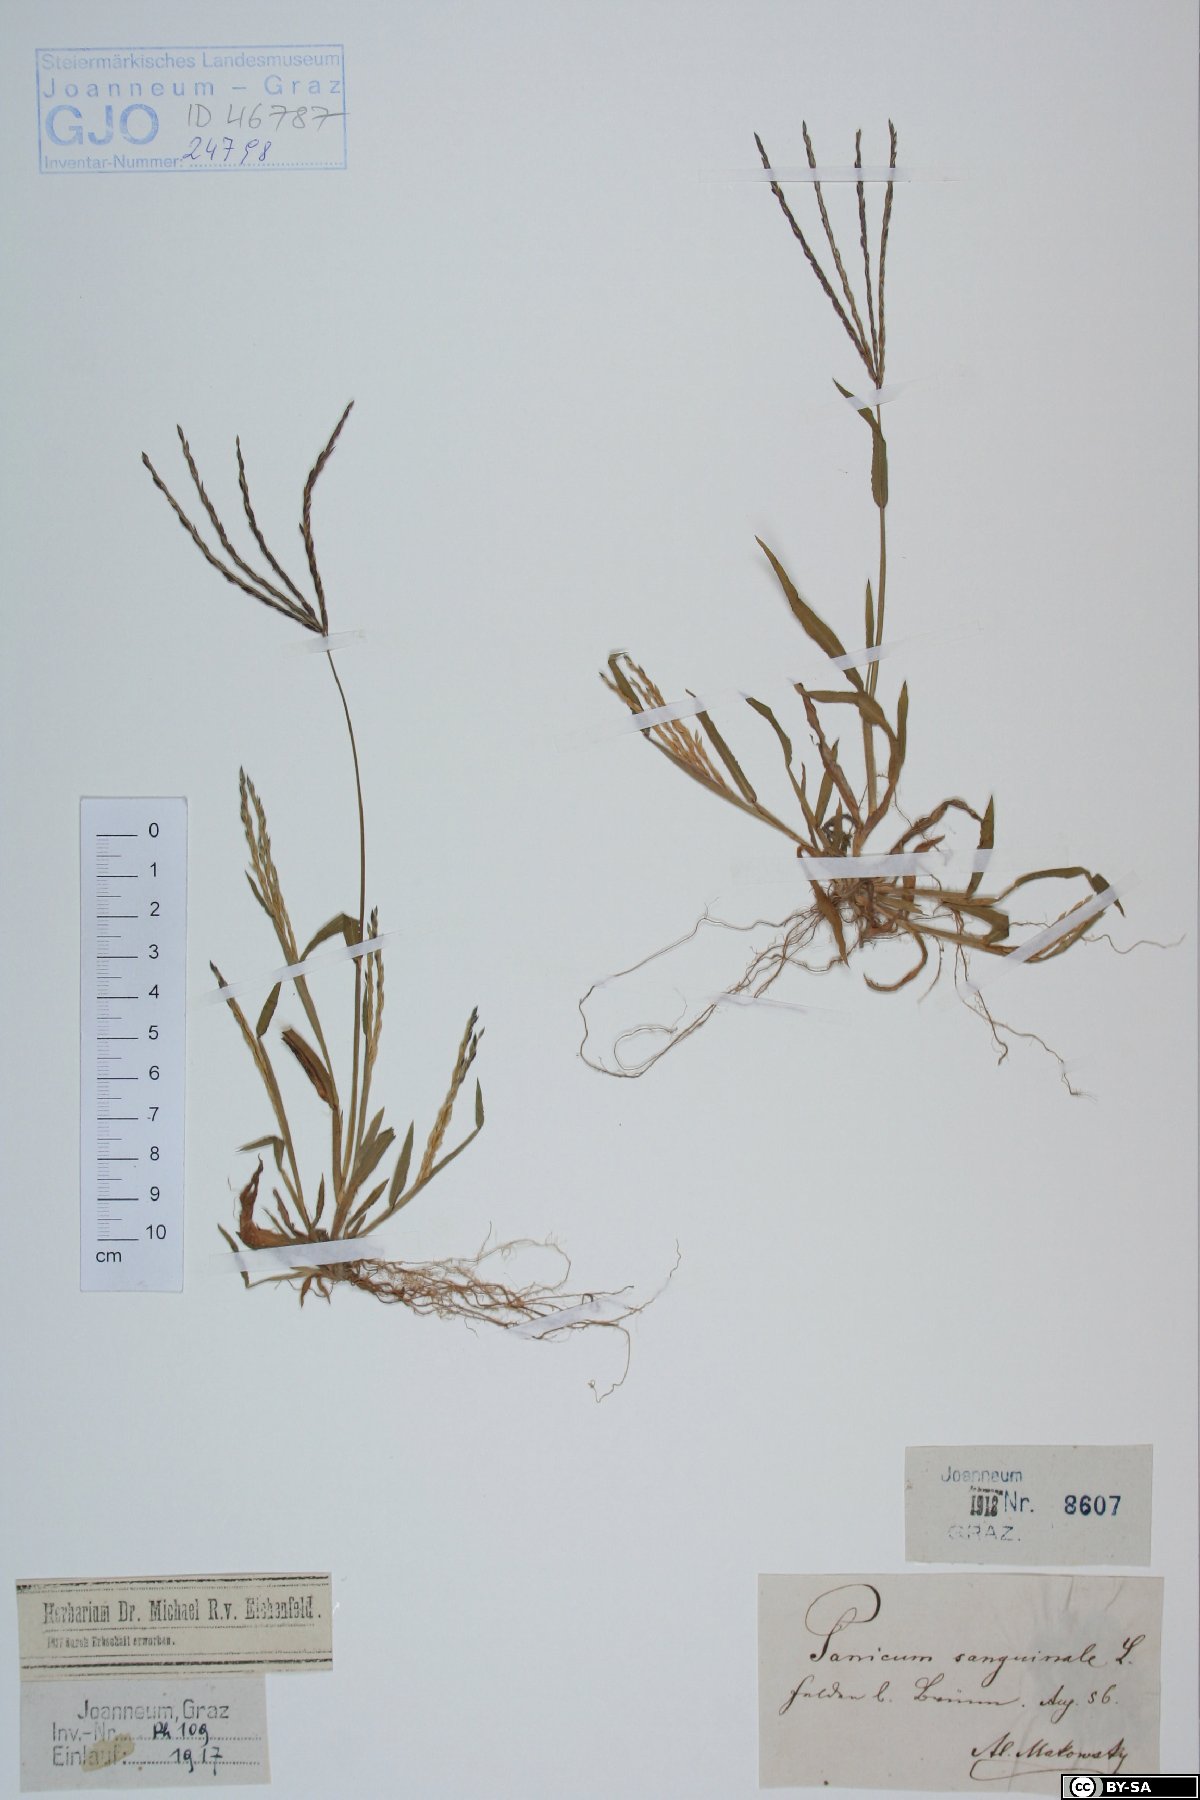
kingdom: Plantae
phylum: Tracheophyta
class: Liliopsida
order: Poales
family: Poaceae
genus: Digitaria
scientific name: Digitaria sanguinalis
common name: Hairy crabgrass
